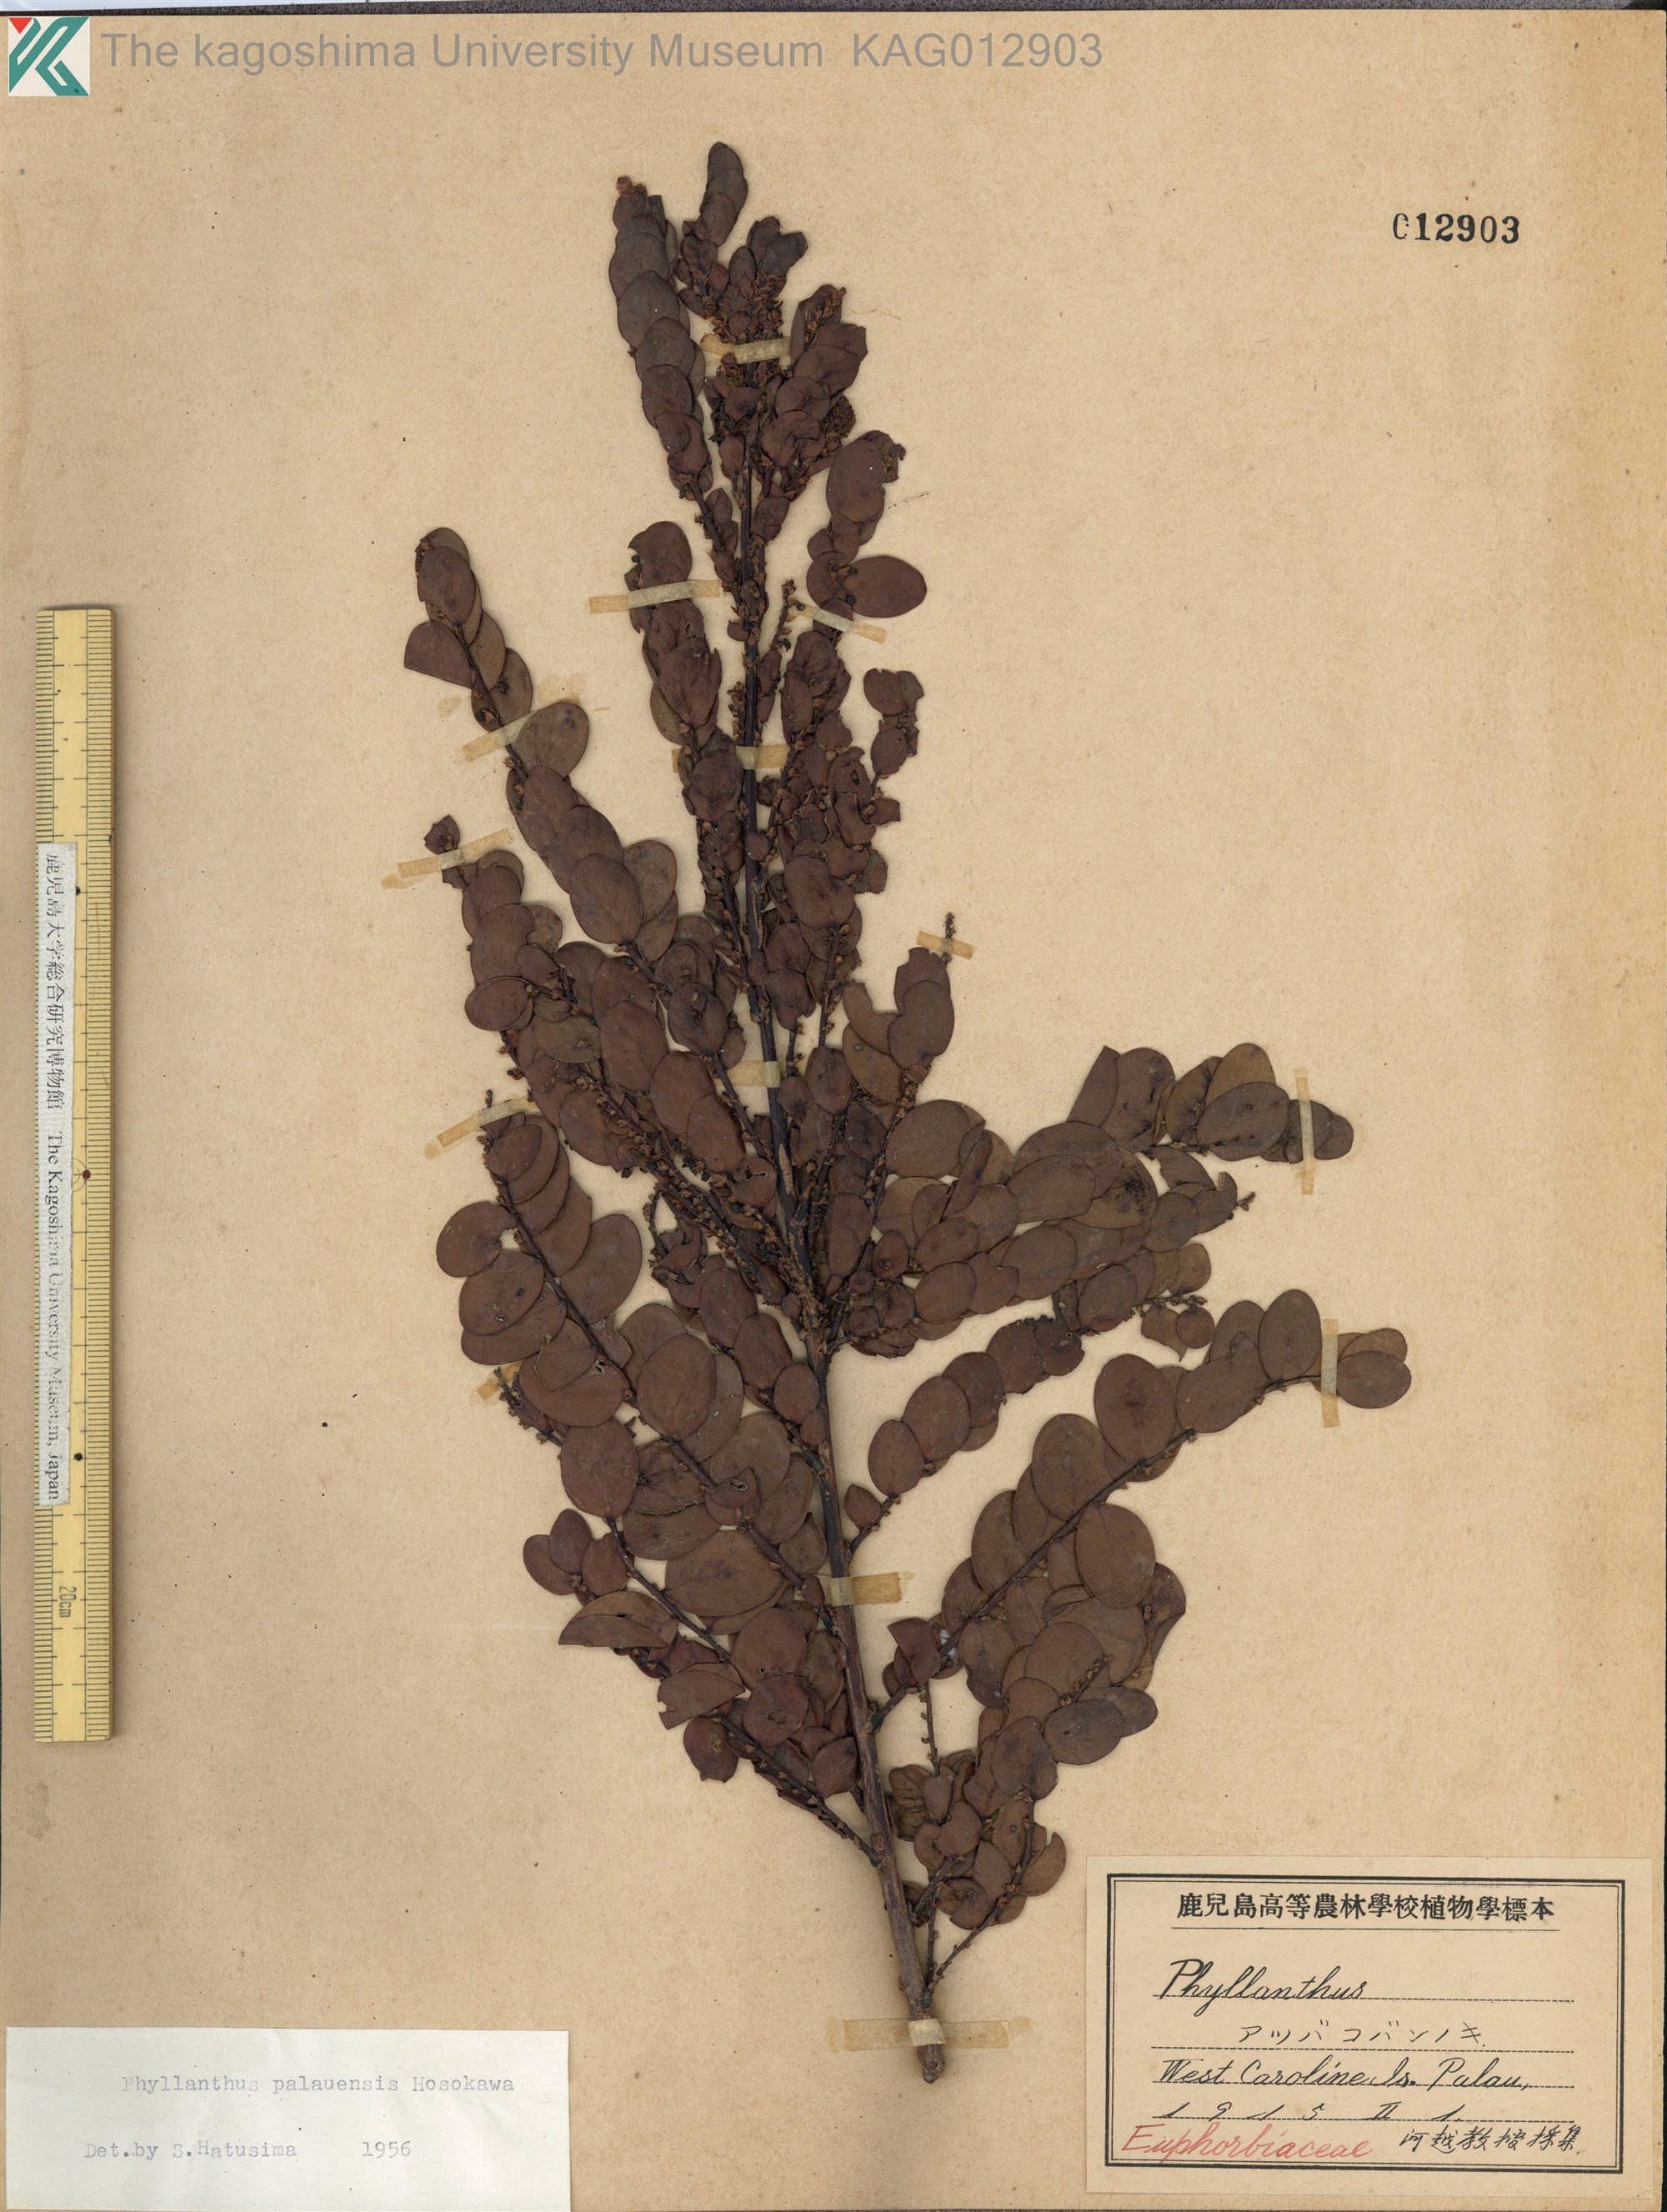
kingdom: Plantae
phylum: Tracheophyta
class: Magnoliopsida
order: Malpighiales
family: Phyllanthaceae
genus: Phyllanthus
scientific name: Phyllanthus palauensis
